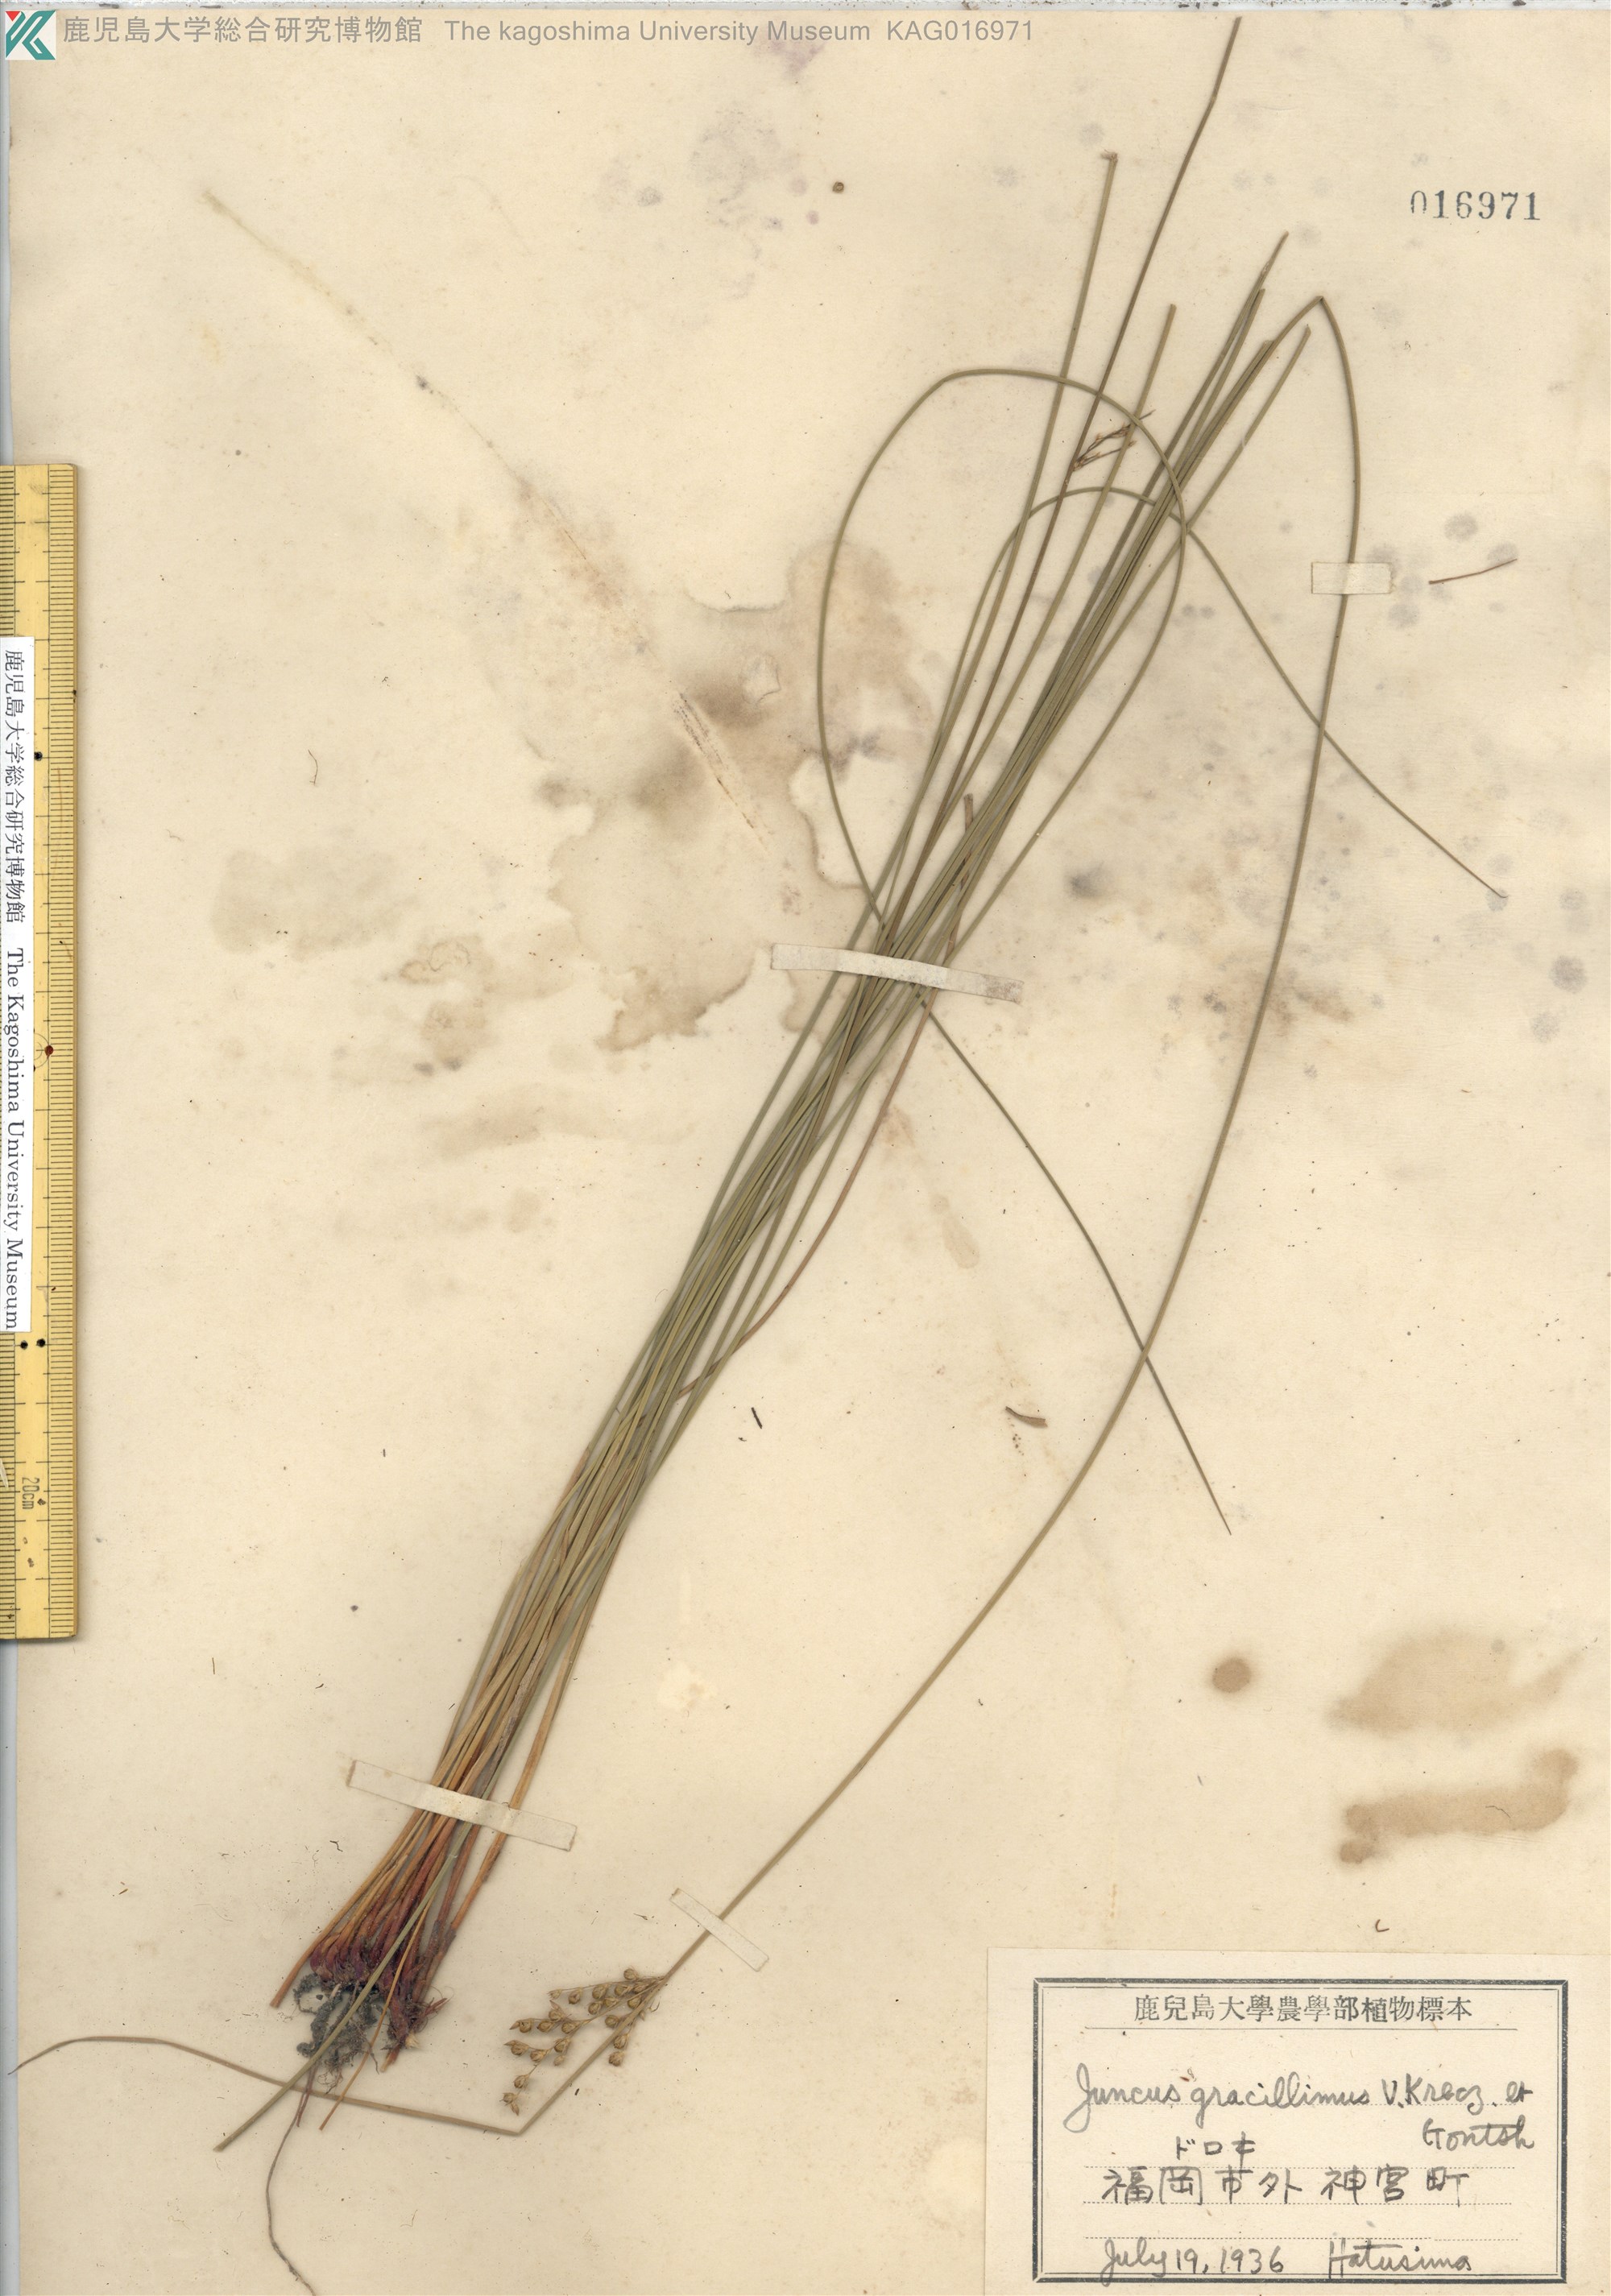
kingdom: Plantae
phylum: Tracheophyta
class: Liliopsida
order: Poales
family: Juncaceae
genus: Juncus
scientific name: Juncus gracillimus
